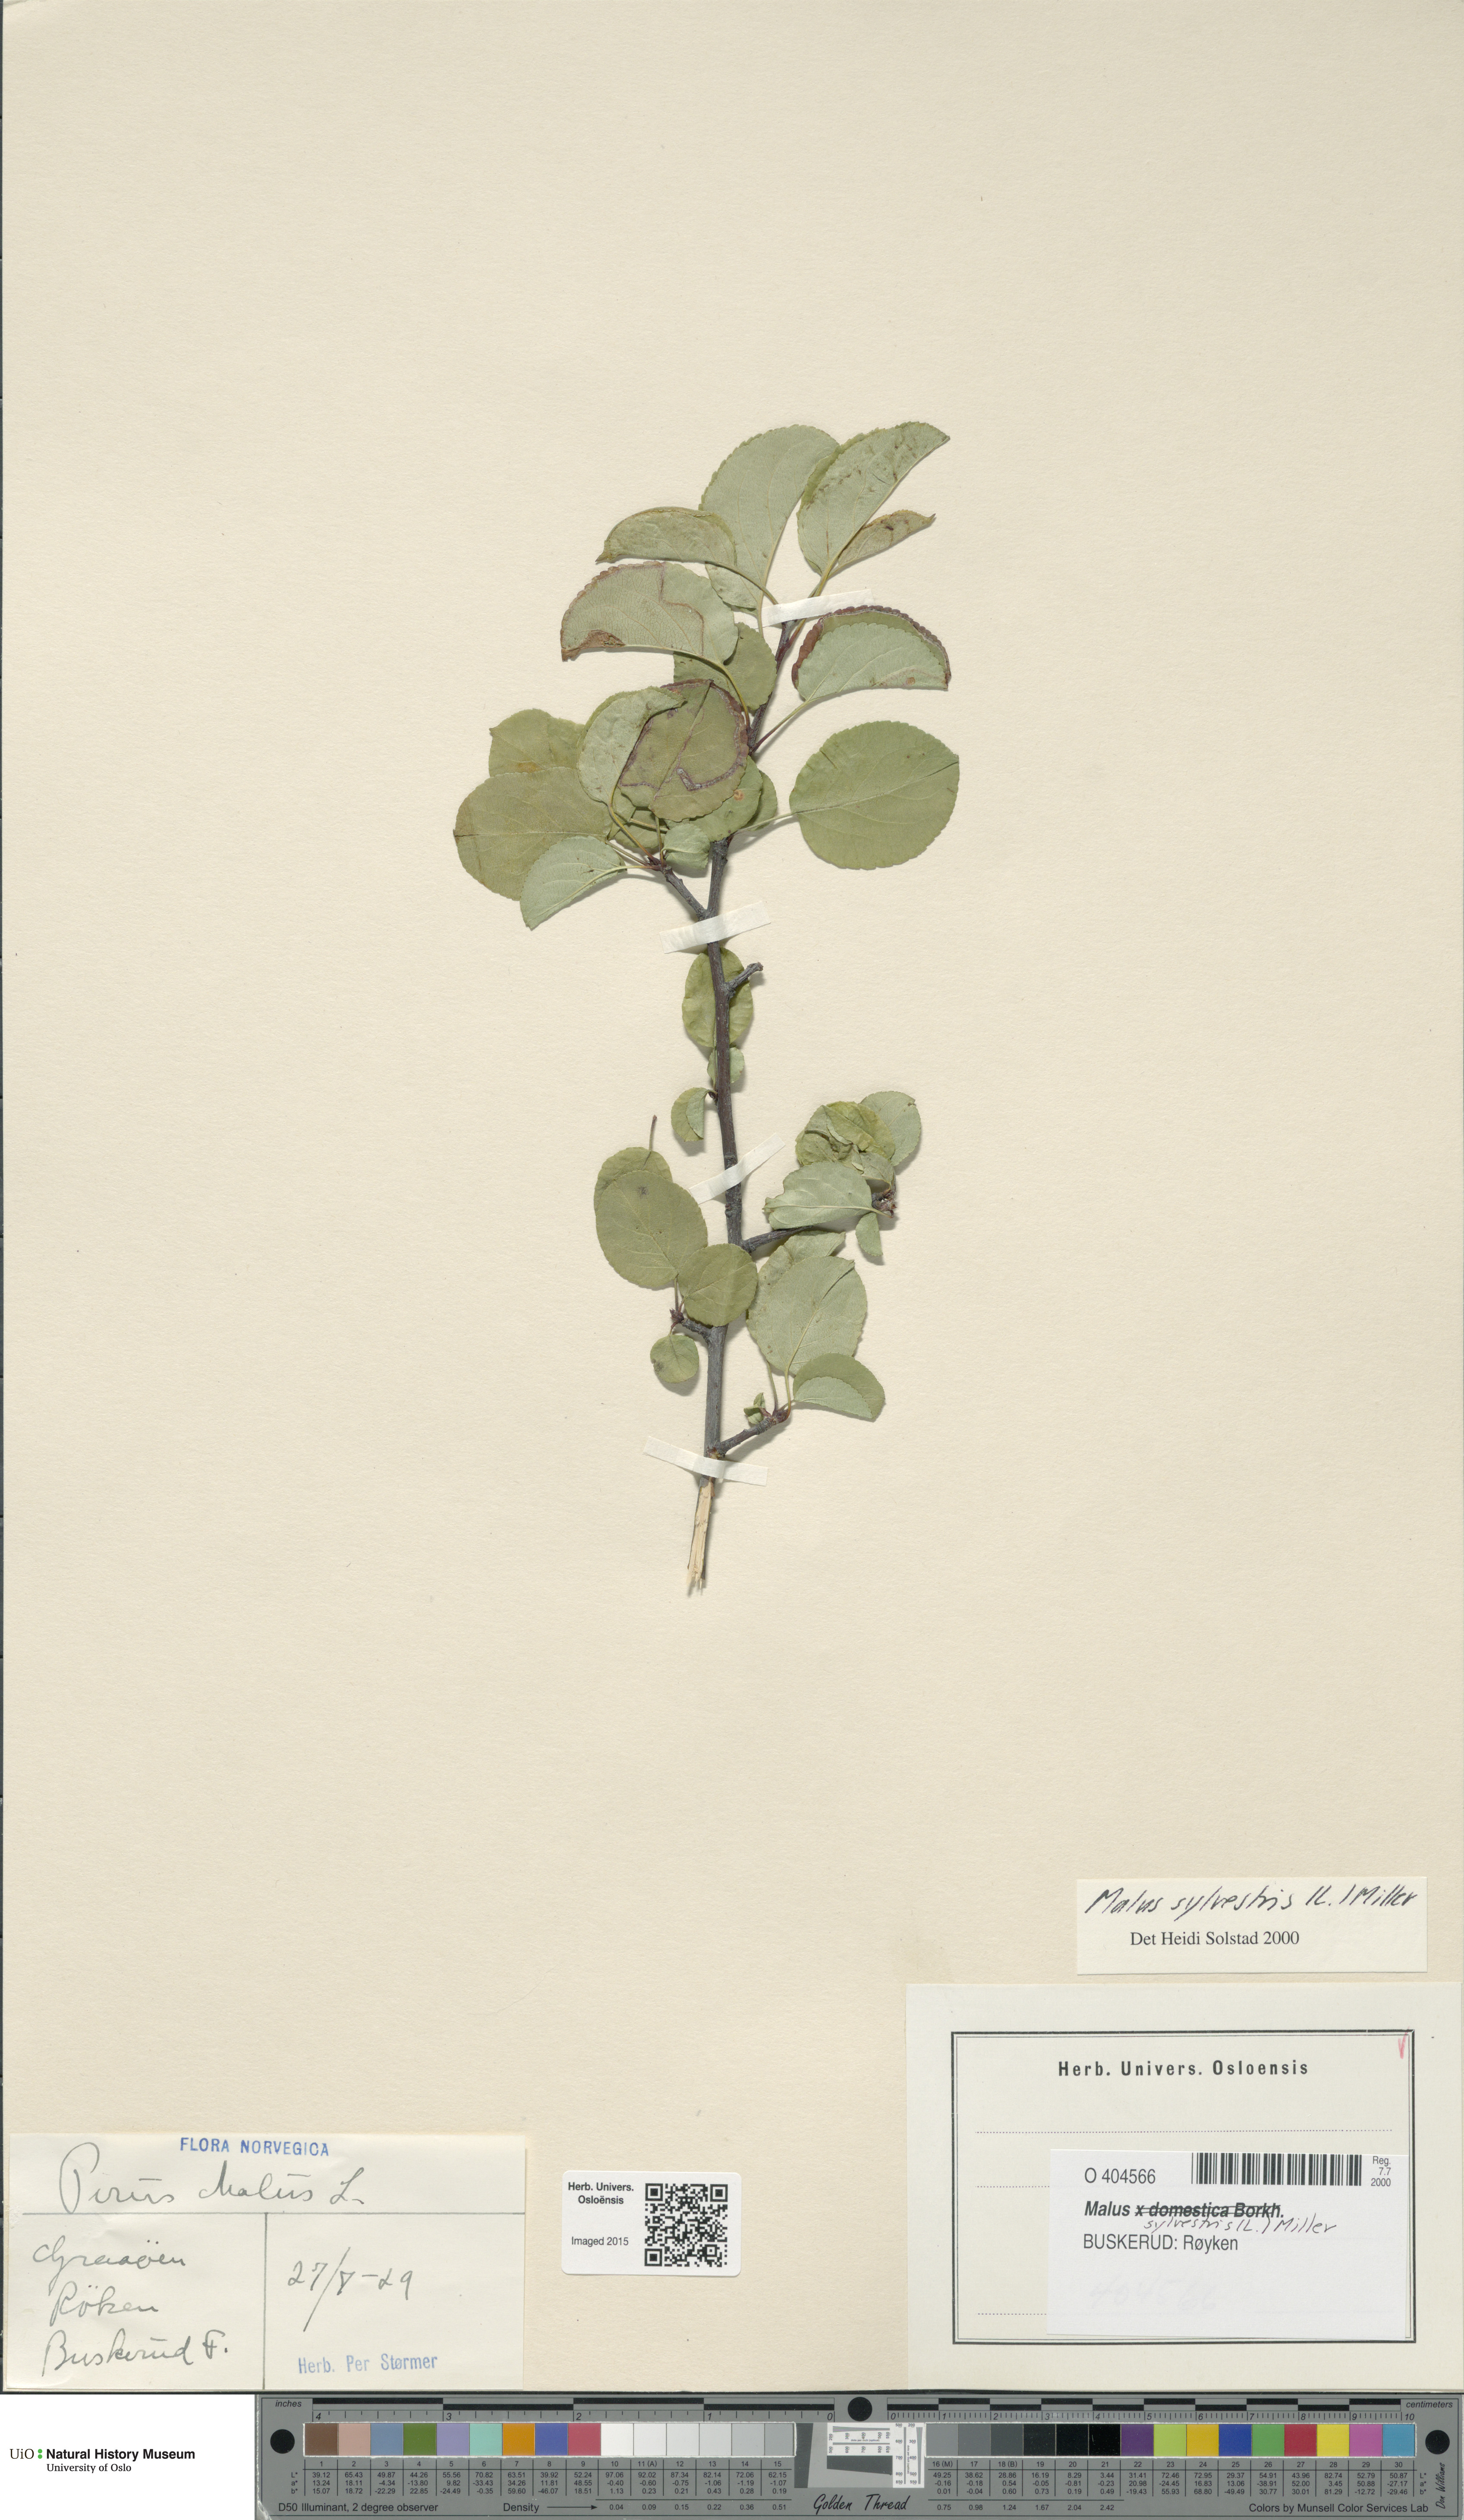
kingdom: Plantae
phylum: Tracheophyta
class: Magnoliopsida
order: Rosales
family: Rosaceae
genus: Malus
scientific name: Malus sylvestris
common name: Crab apple
